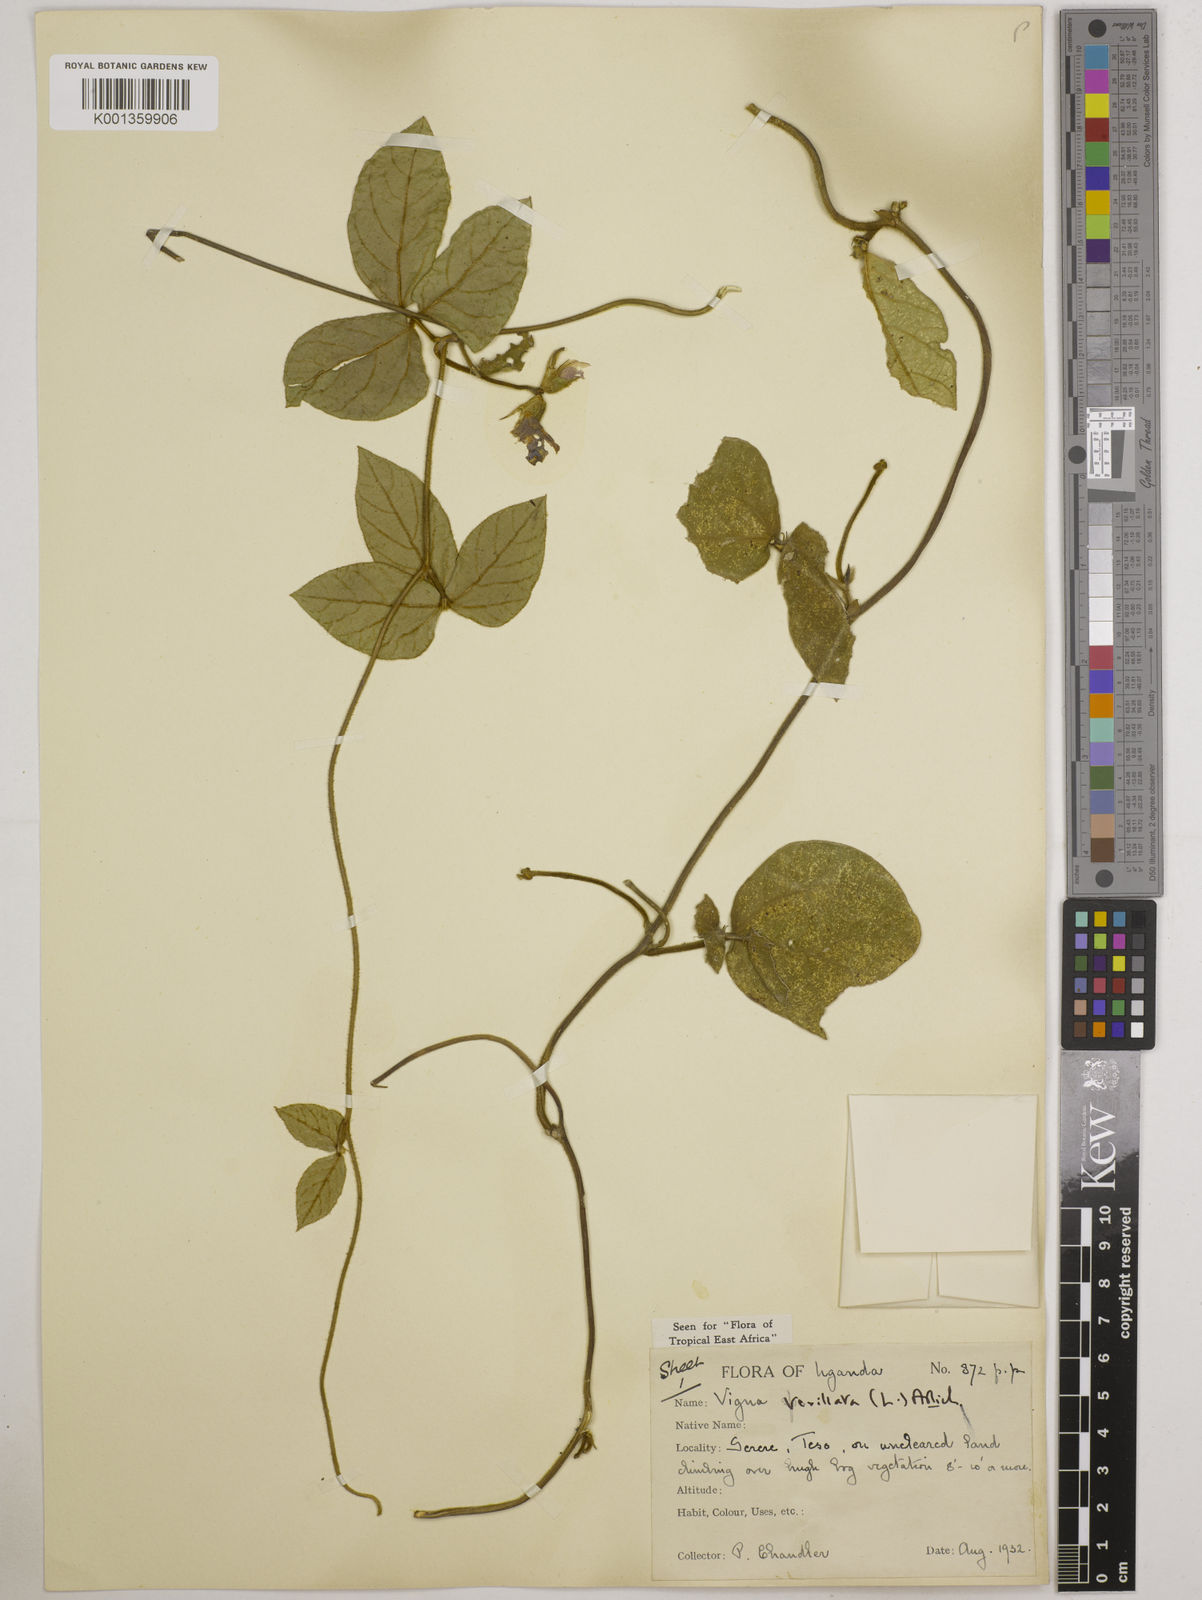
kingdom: Plantae
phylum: Tracheophyta
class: Magnoliopsida
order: Fabales
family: Fabaceae
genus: Vigna
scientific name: Vigna vexillata
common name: Zombi pea
